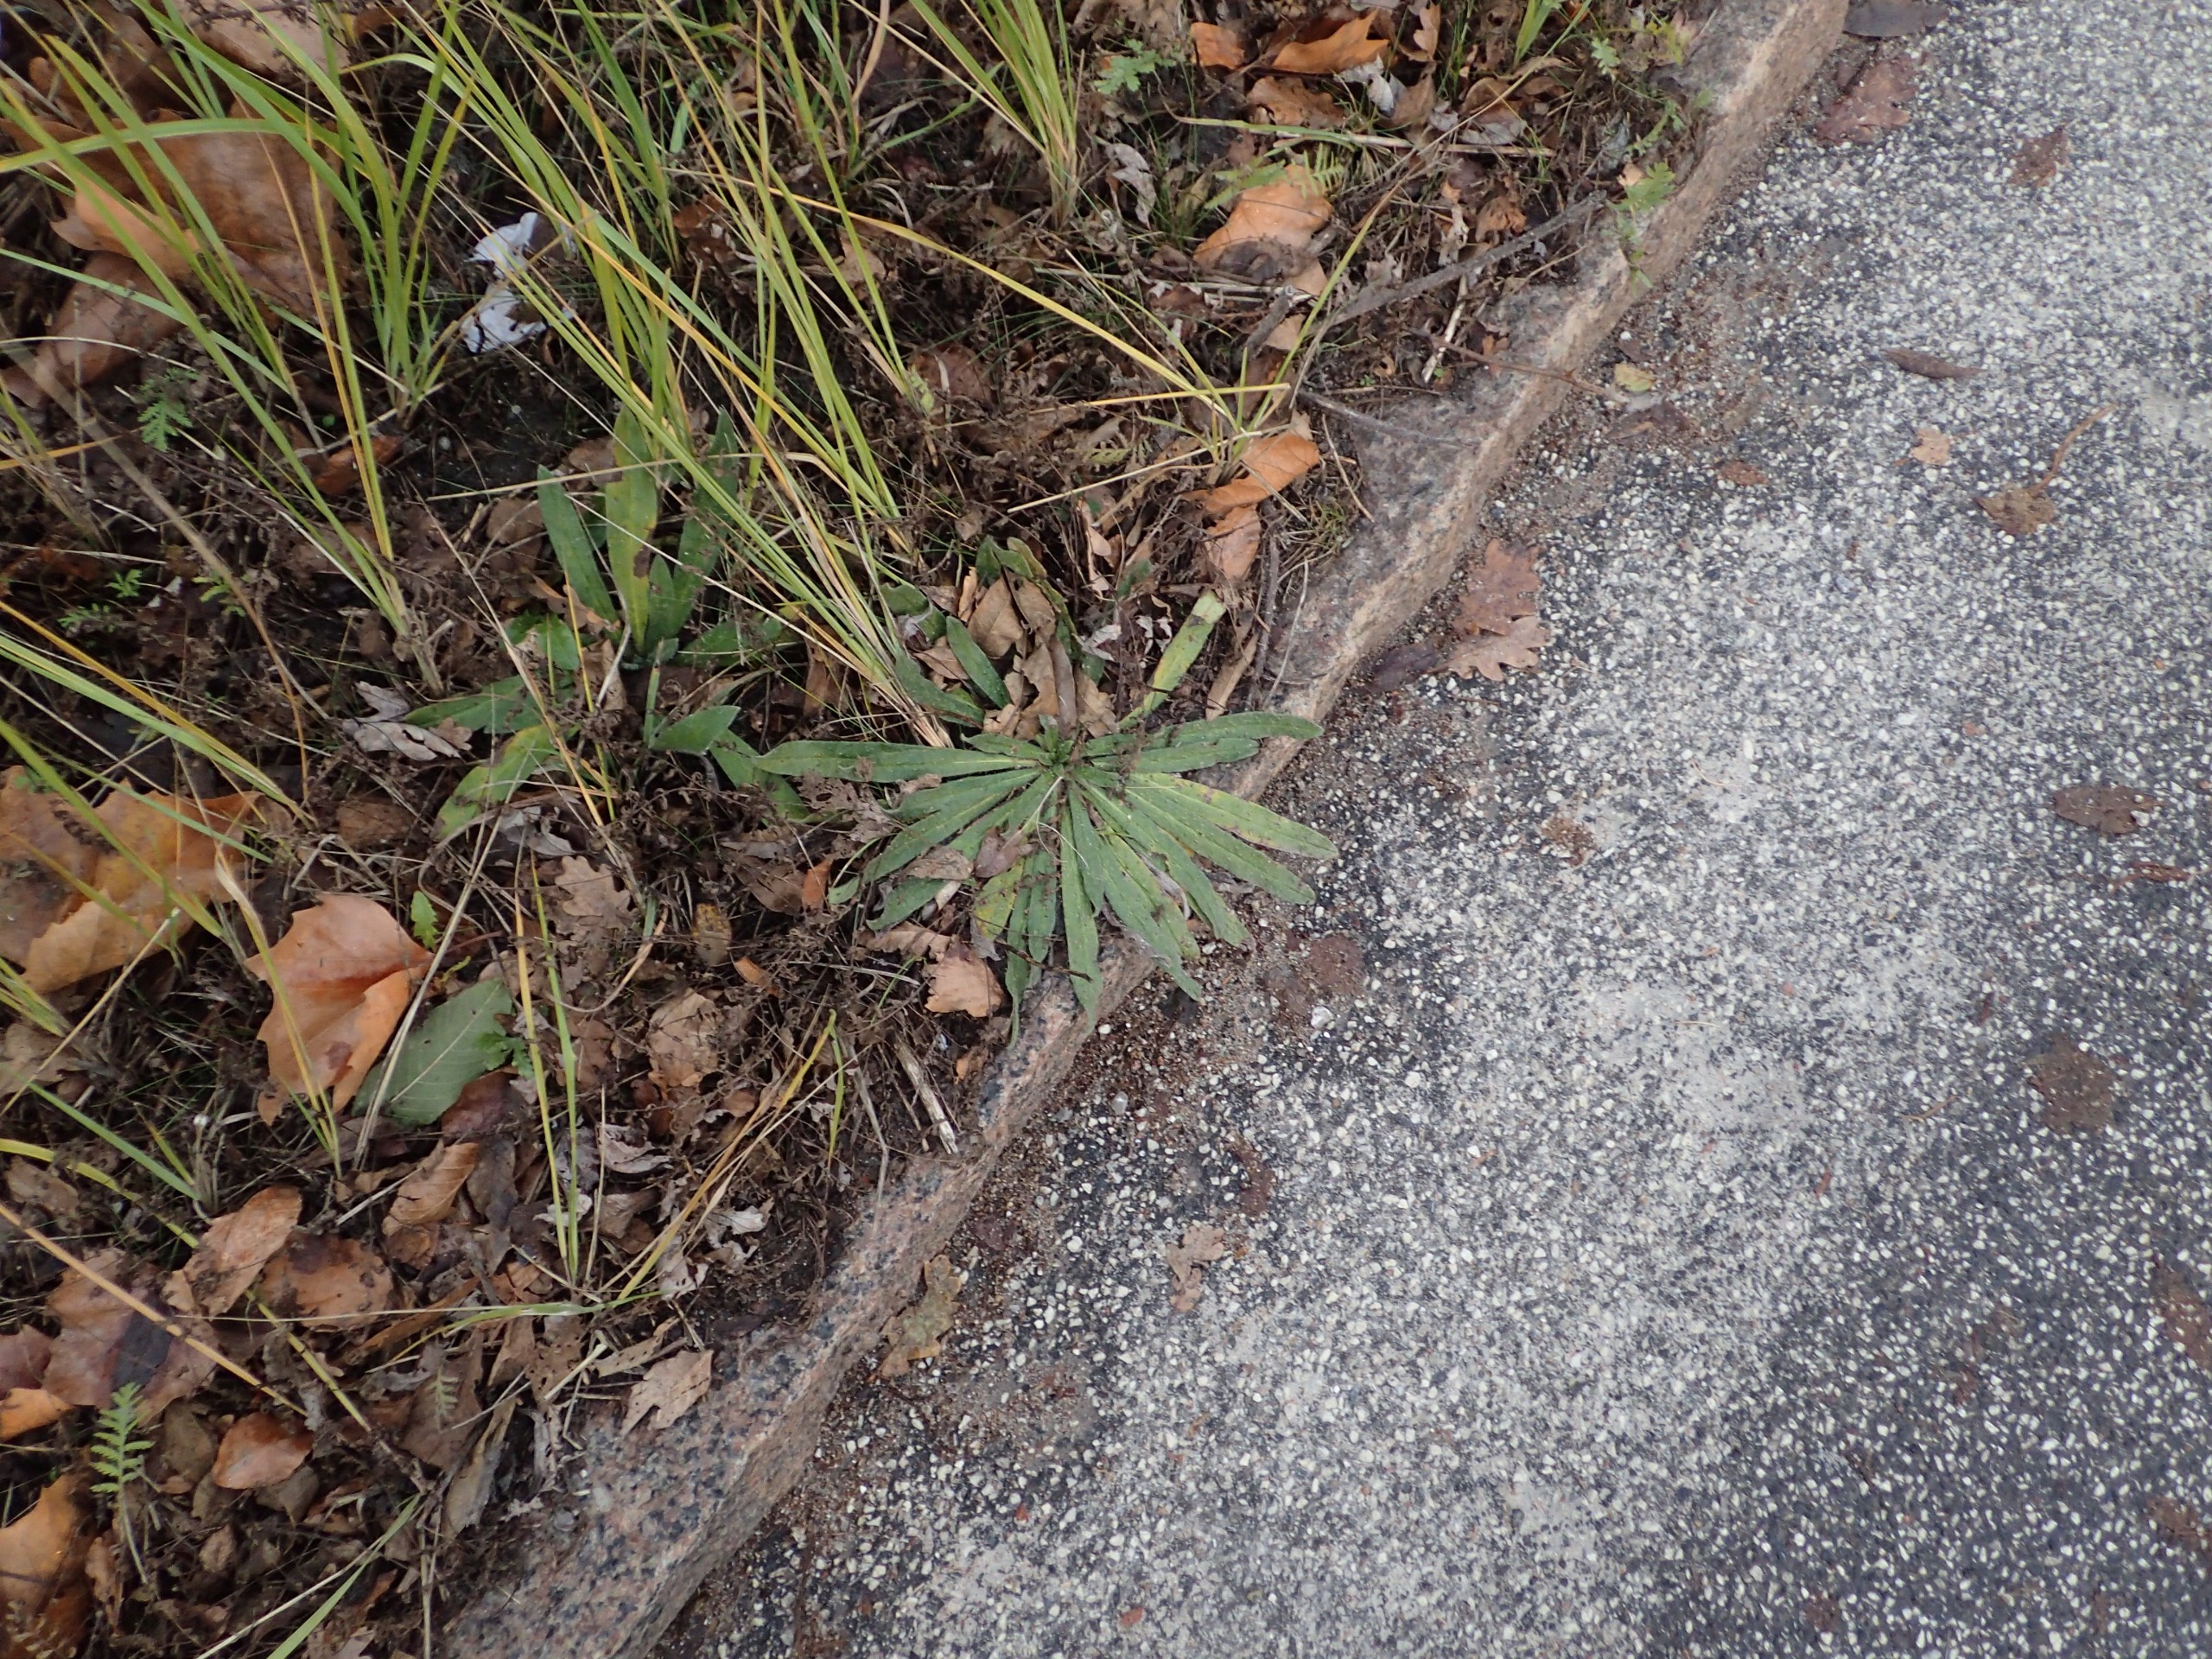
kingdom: Plantae
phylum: Tracheophyta
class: Magnoliopsida
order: Boraginales
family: Boraginaceae
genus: Echium
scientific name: Echium vulgare
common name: Slangehoved
